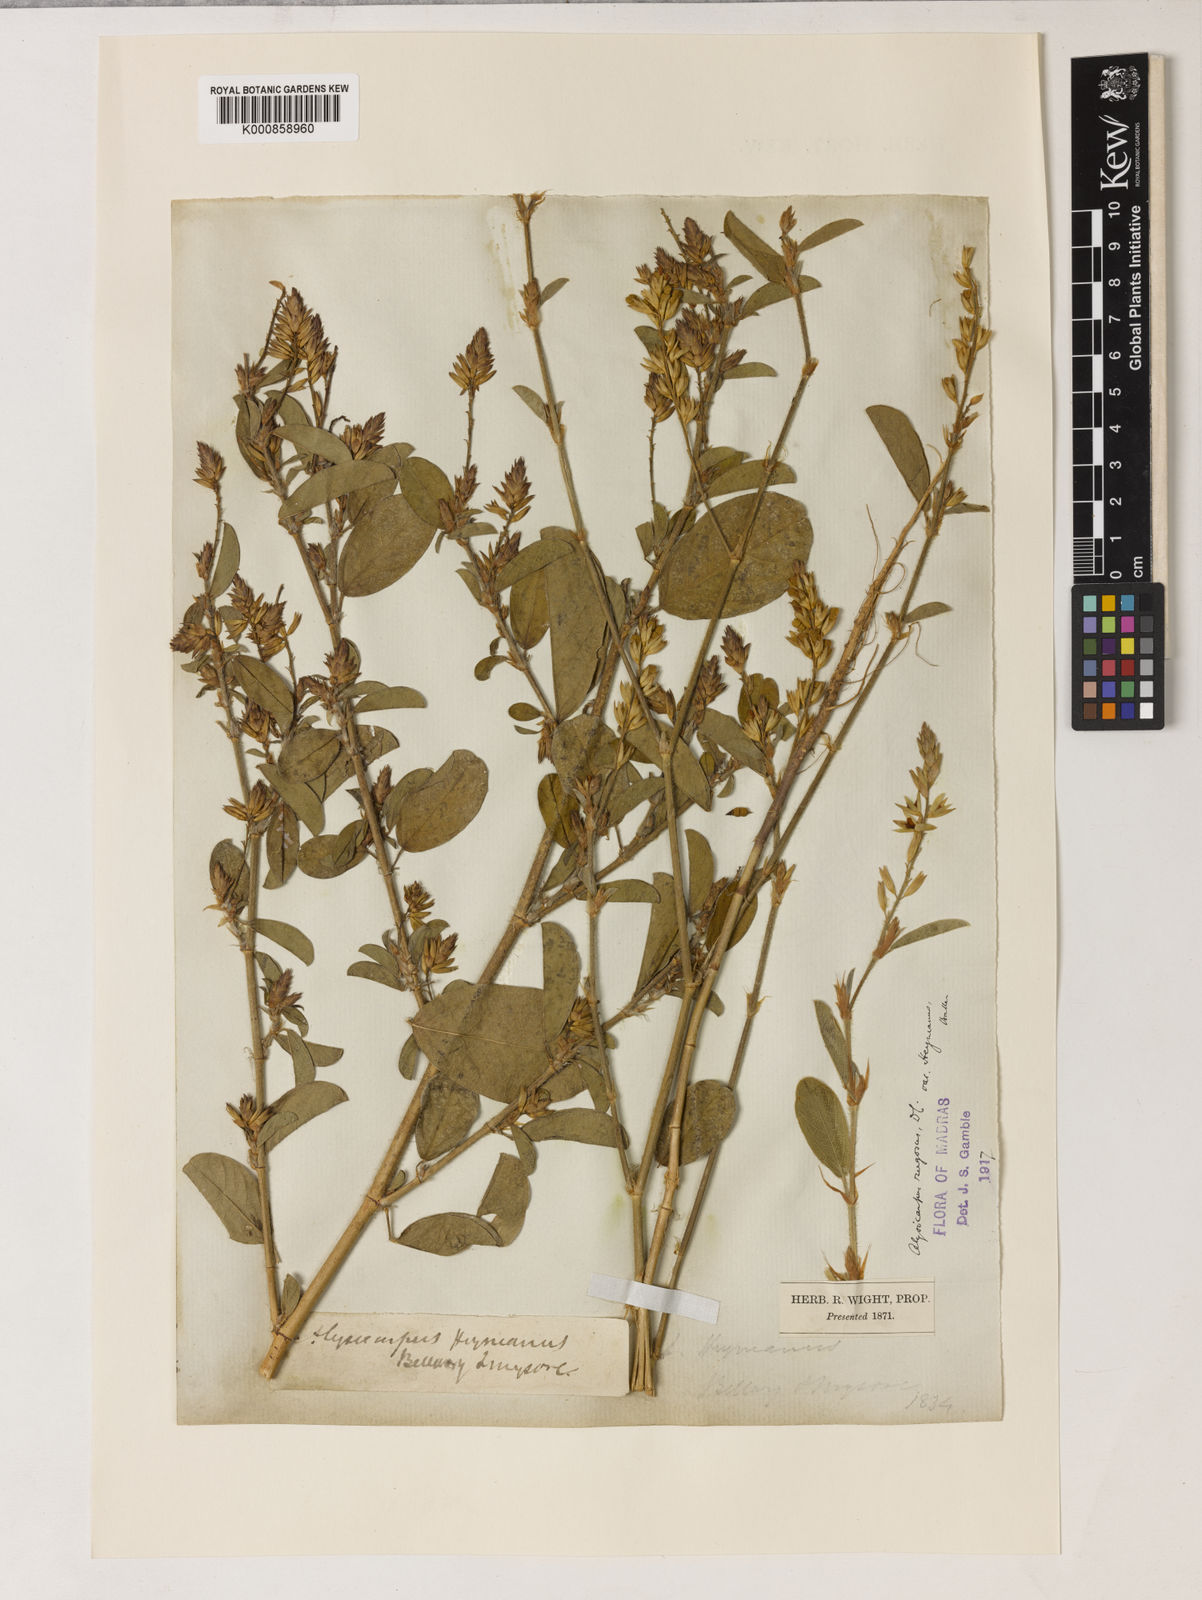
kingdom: Plantae
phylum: Tracheophyta
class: Magnoliopsida
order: Fabales
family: Fabaceae
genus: Alysicarpus
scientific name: Alysicarpus heyneanus
